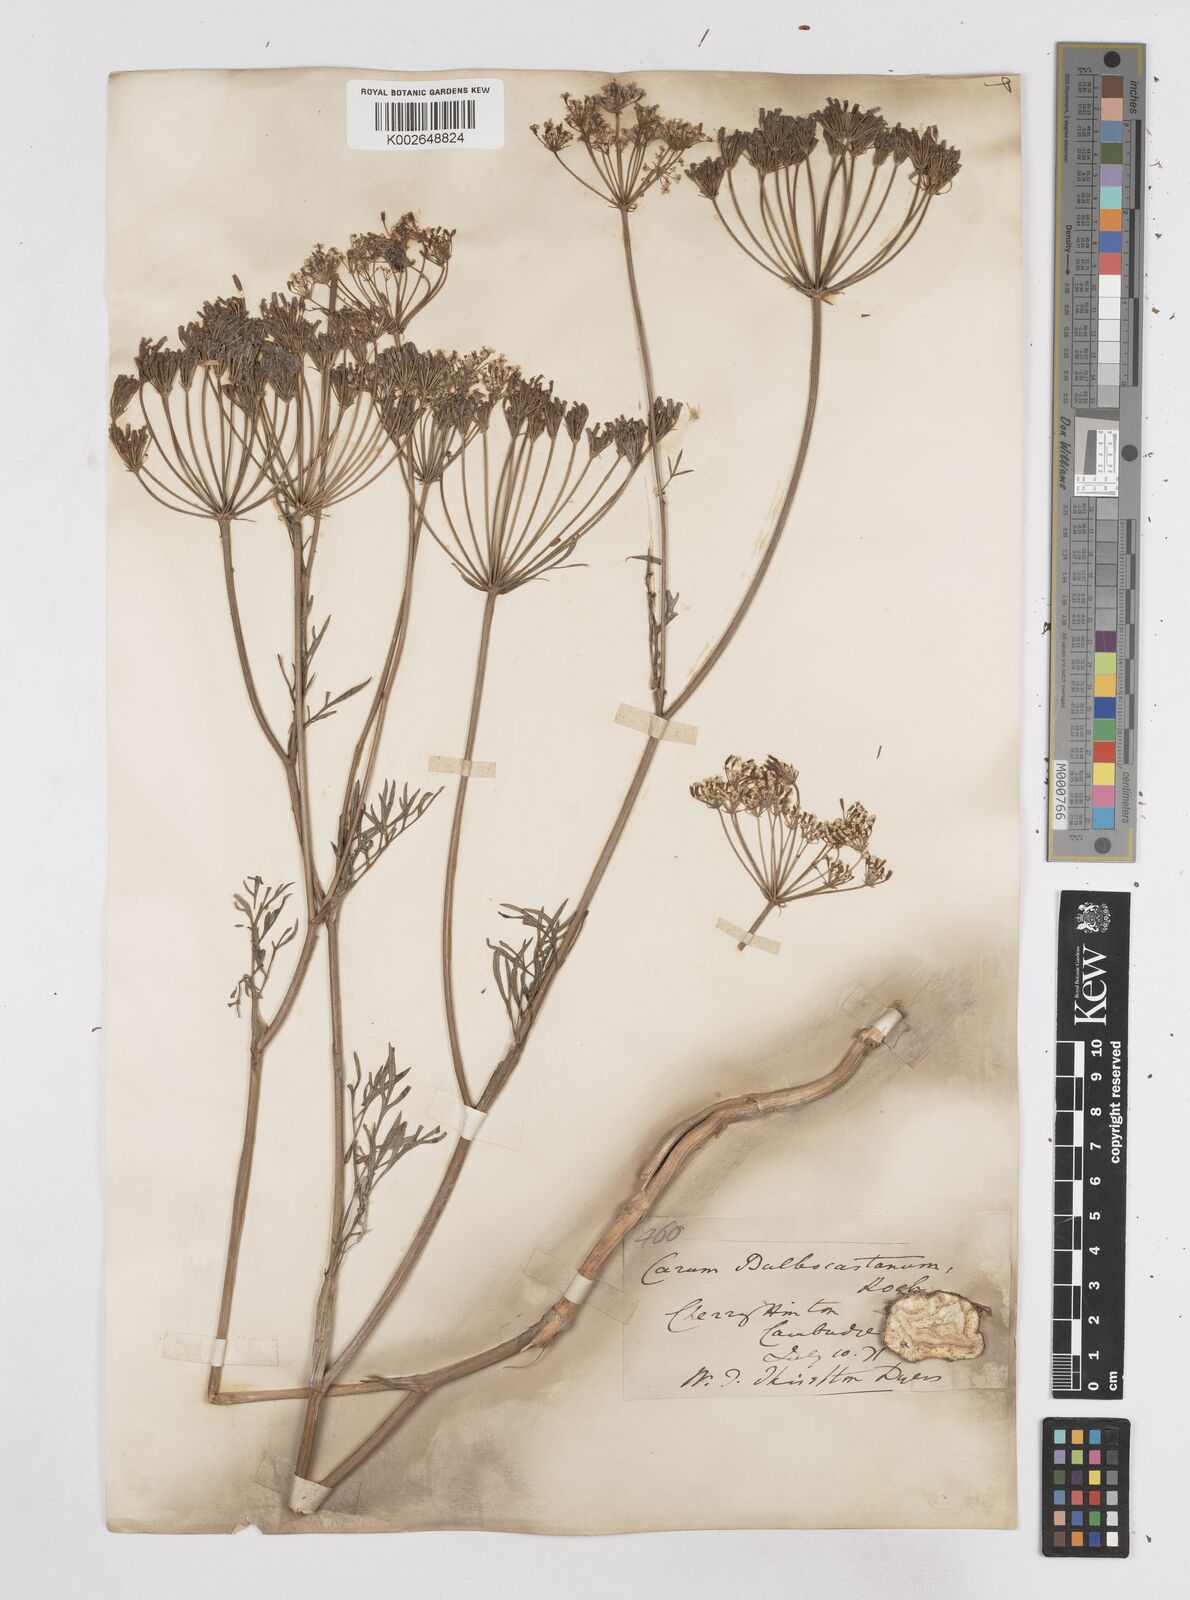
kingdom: Plantae
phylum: Tracheophyta
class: Magnoliopsida
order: Apiales
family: Apiaceae
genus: Bunium
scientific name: Bunium bulbocastanum
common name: Great pignut
